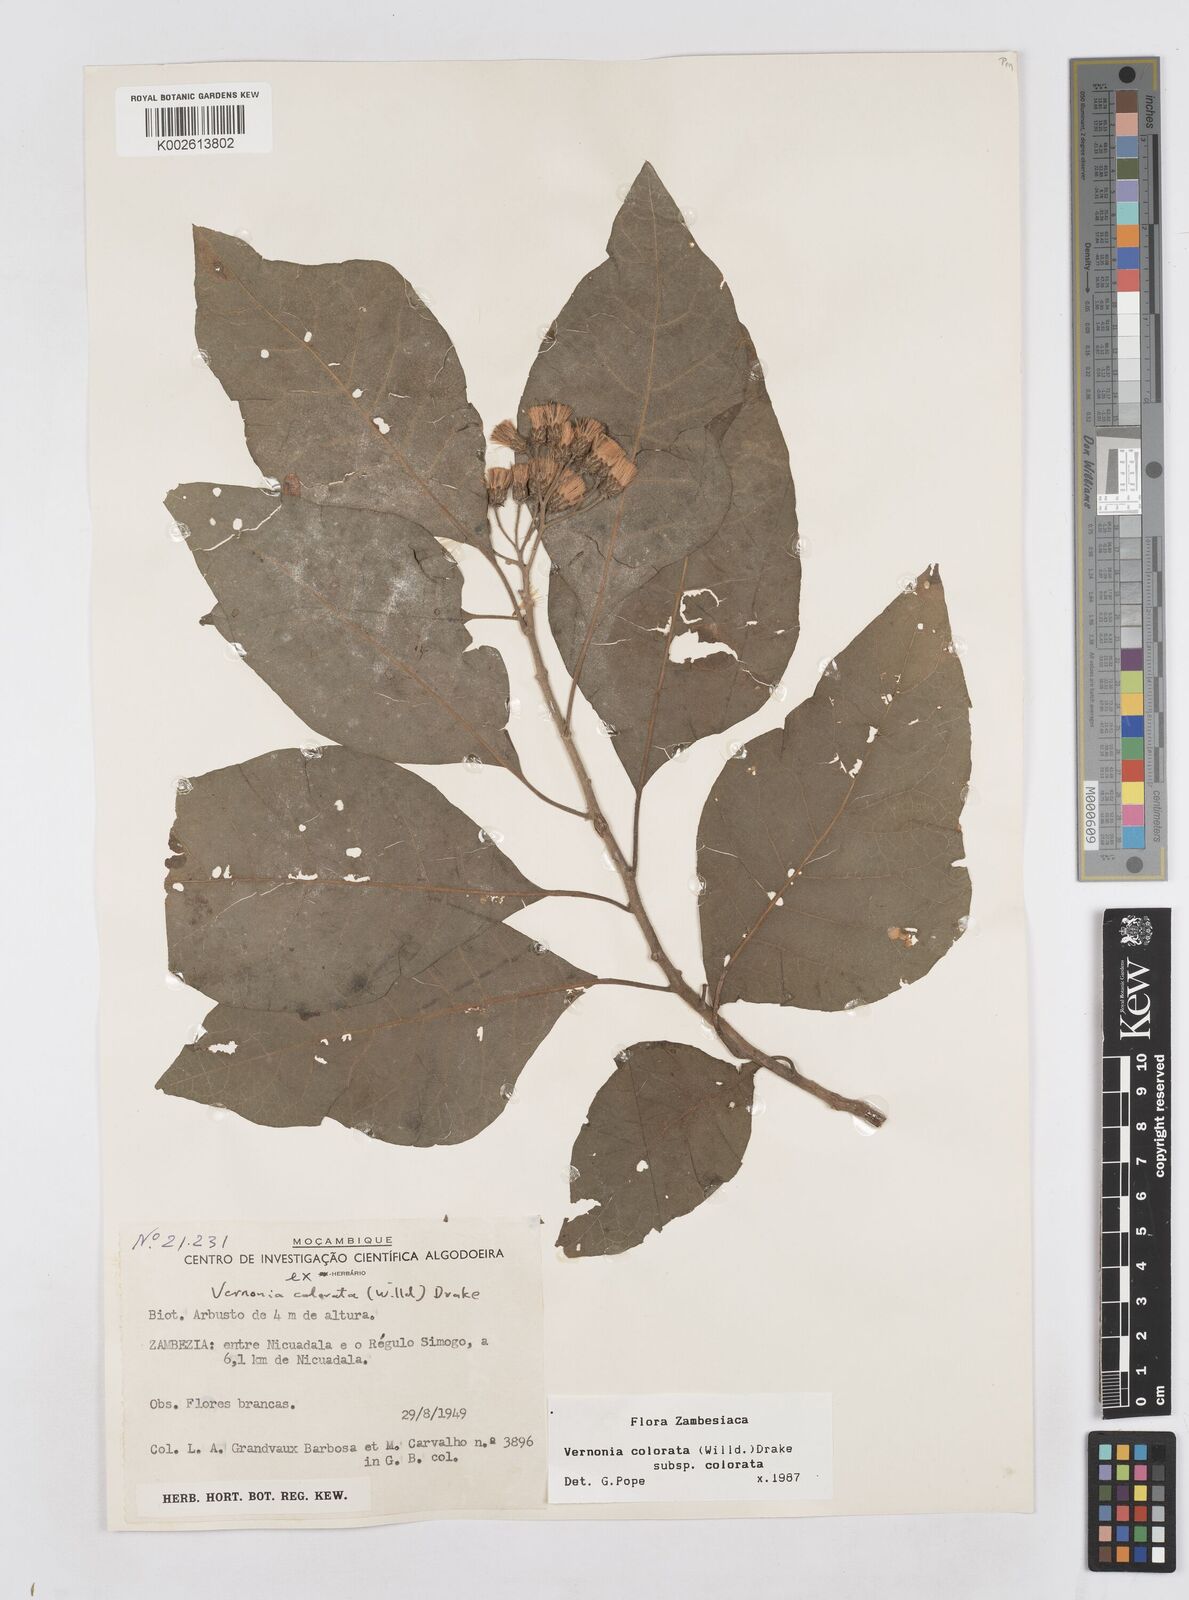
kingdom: Plantae
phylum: Tracheophyta
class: Magnoliopsida
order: Asterales
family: Asteraceae
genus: Vernonia
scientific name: Vernonia colorata
